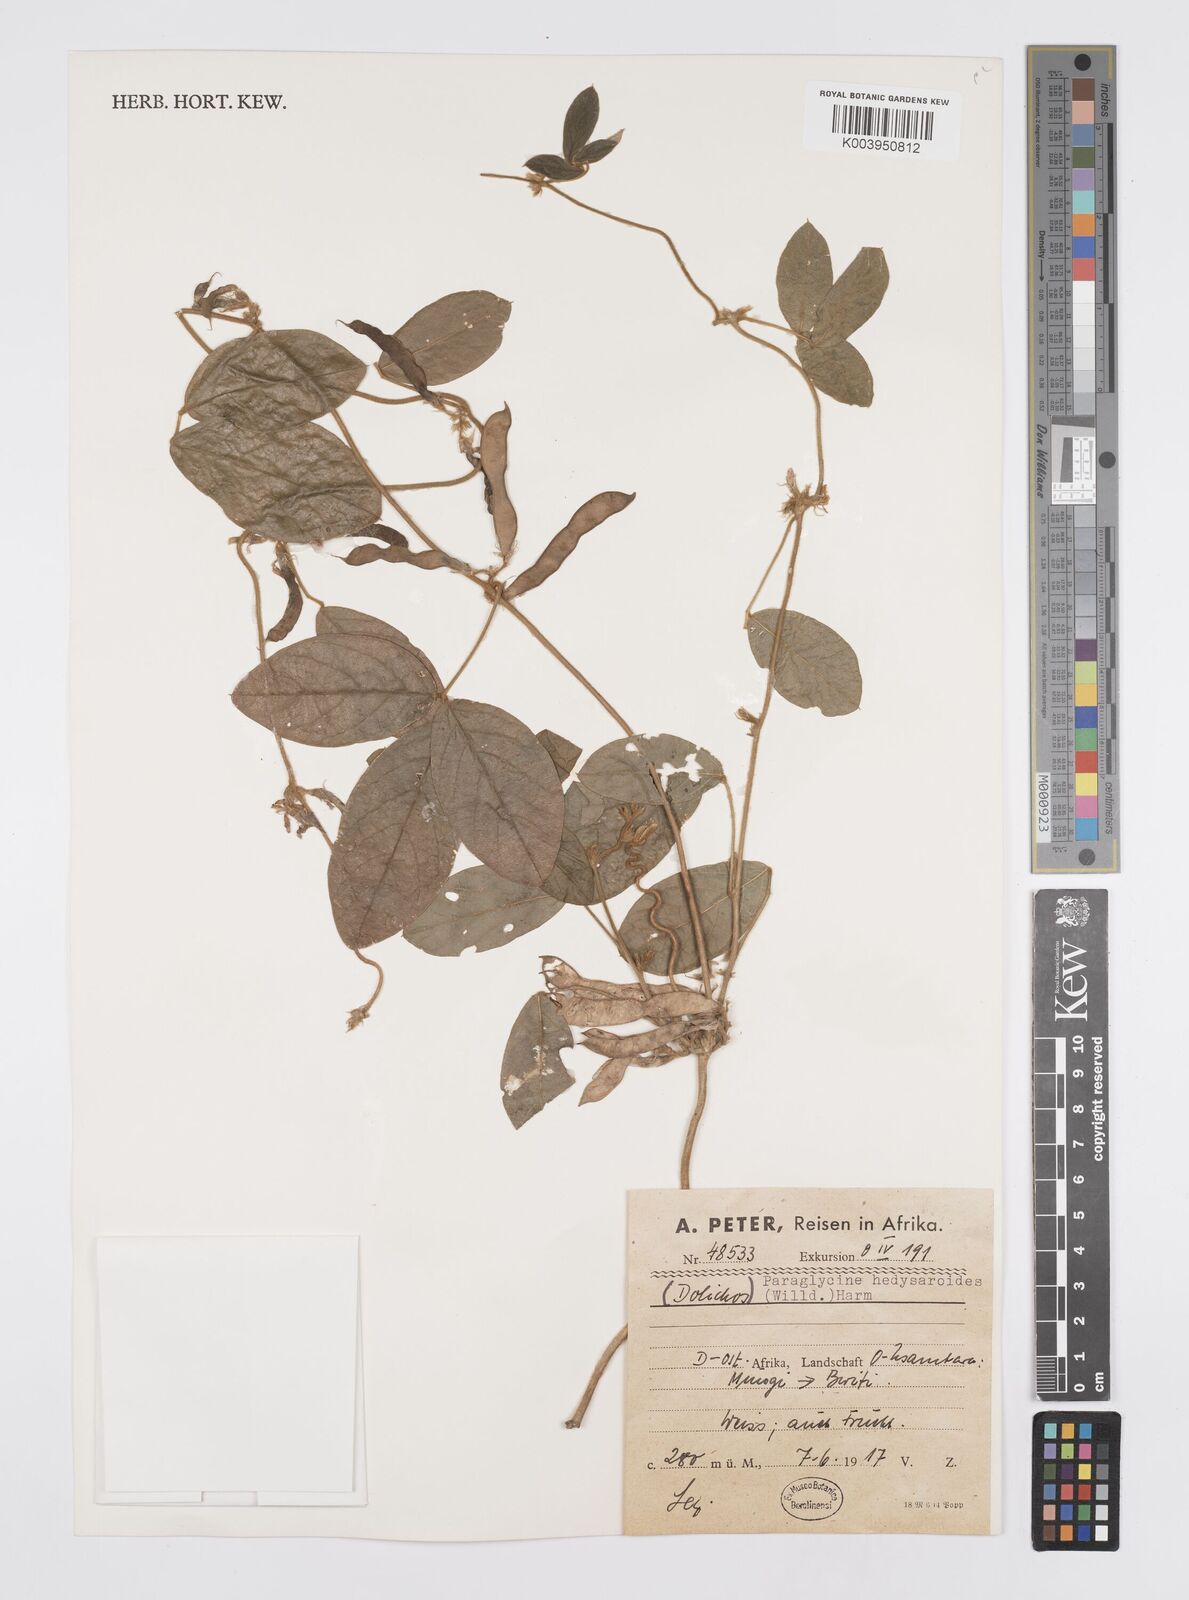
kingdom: Plantae
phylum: Tracheophyta
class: Magnoliopsida
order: Fabales
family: Fabaceae
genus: Ophrestia
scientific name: Ophrestia hedysaroides
